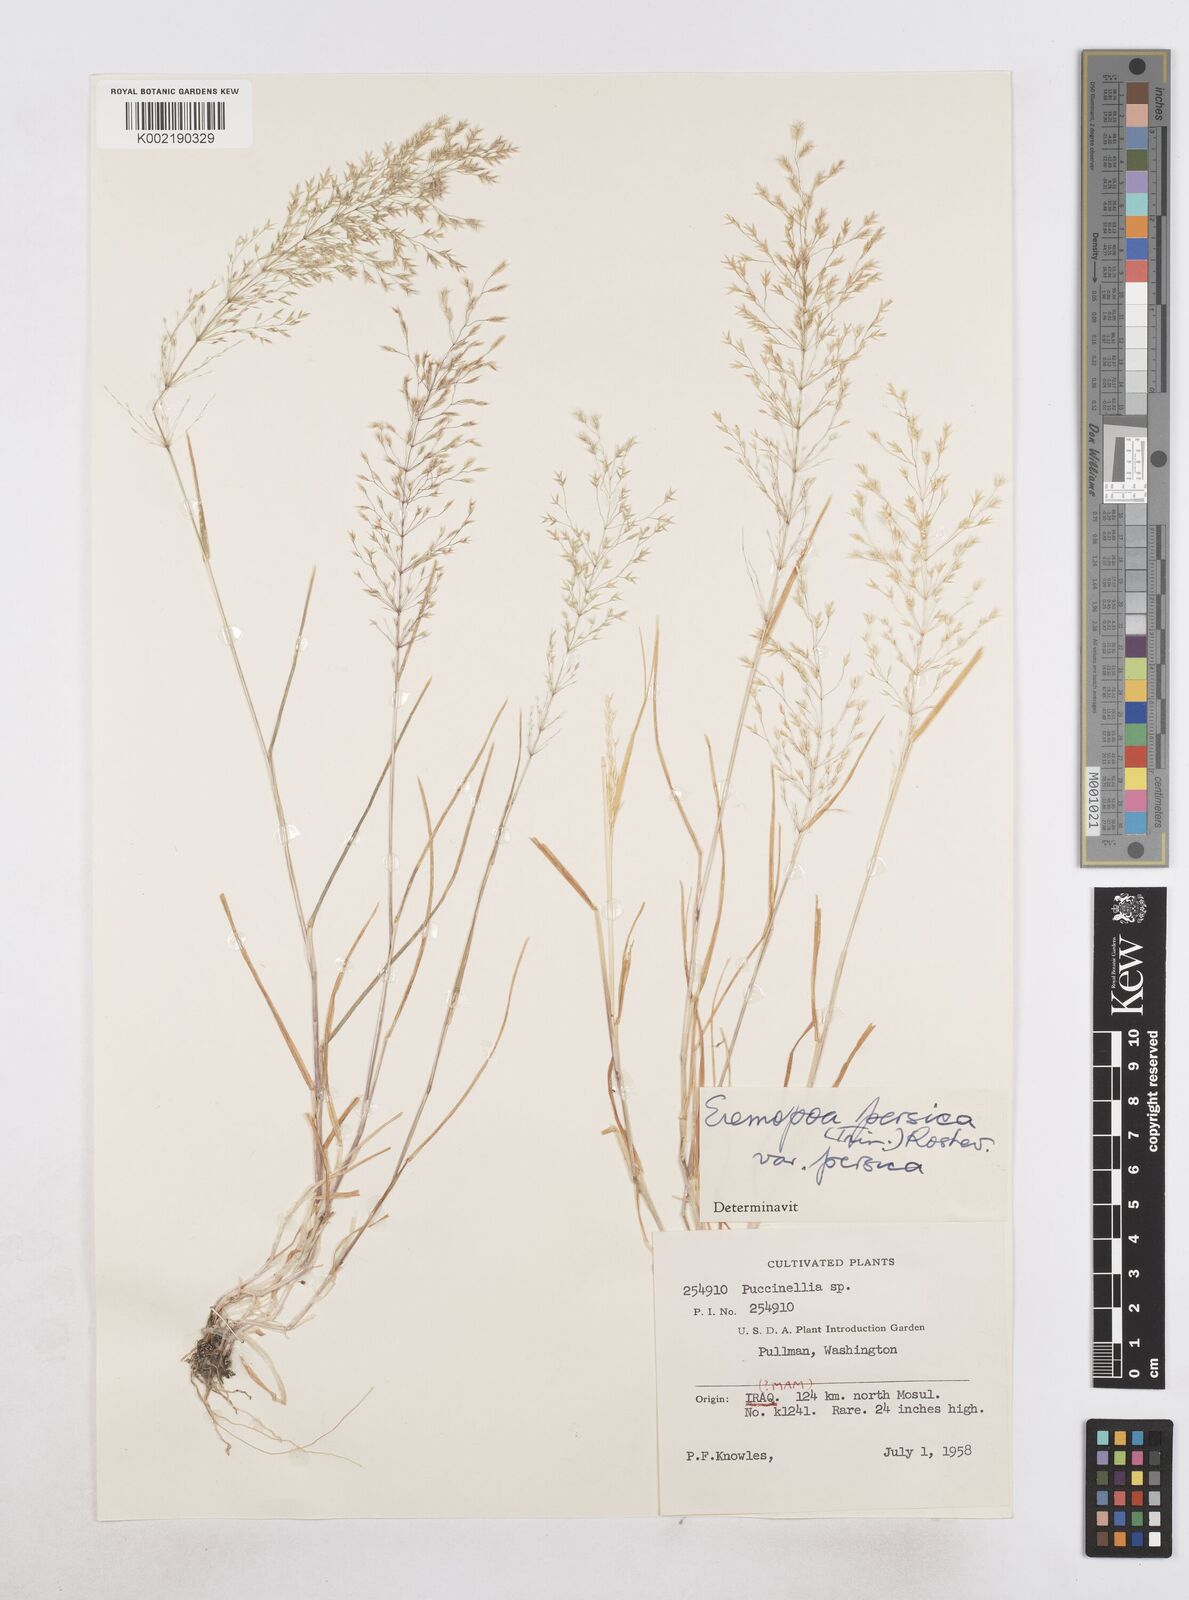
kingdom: Plantae
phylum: Tracheophyta
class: Liliopsida
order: Poales
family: Poaceae
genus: Poa
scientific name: Poa persica
